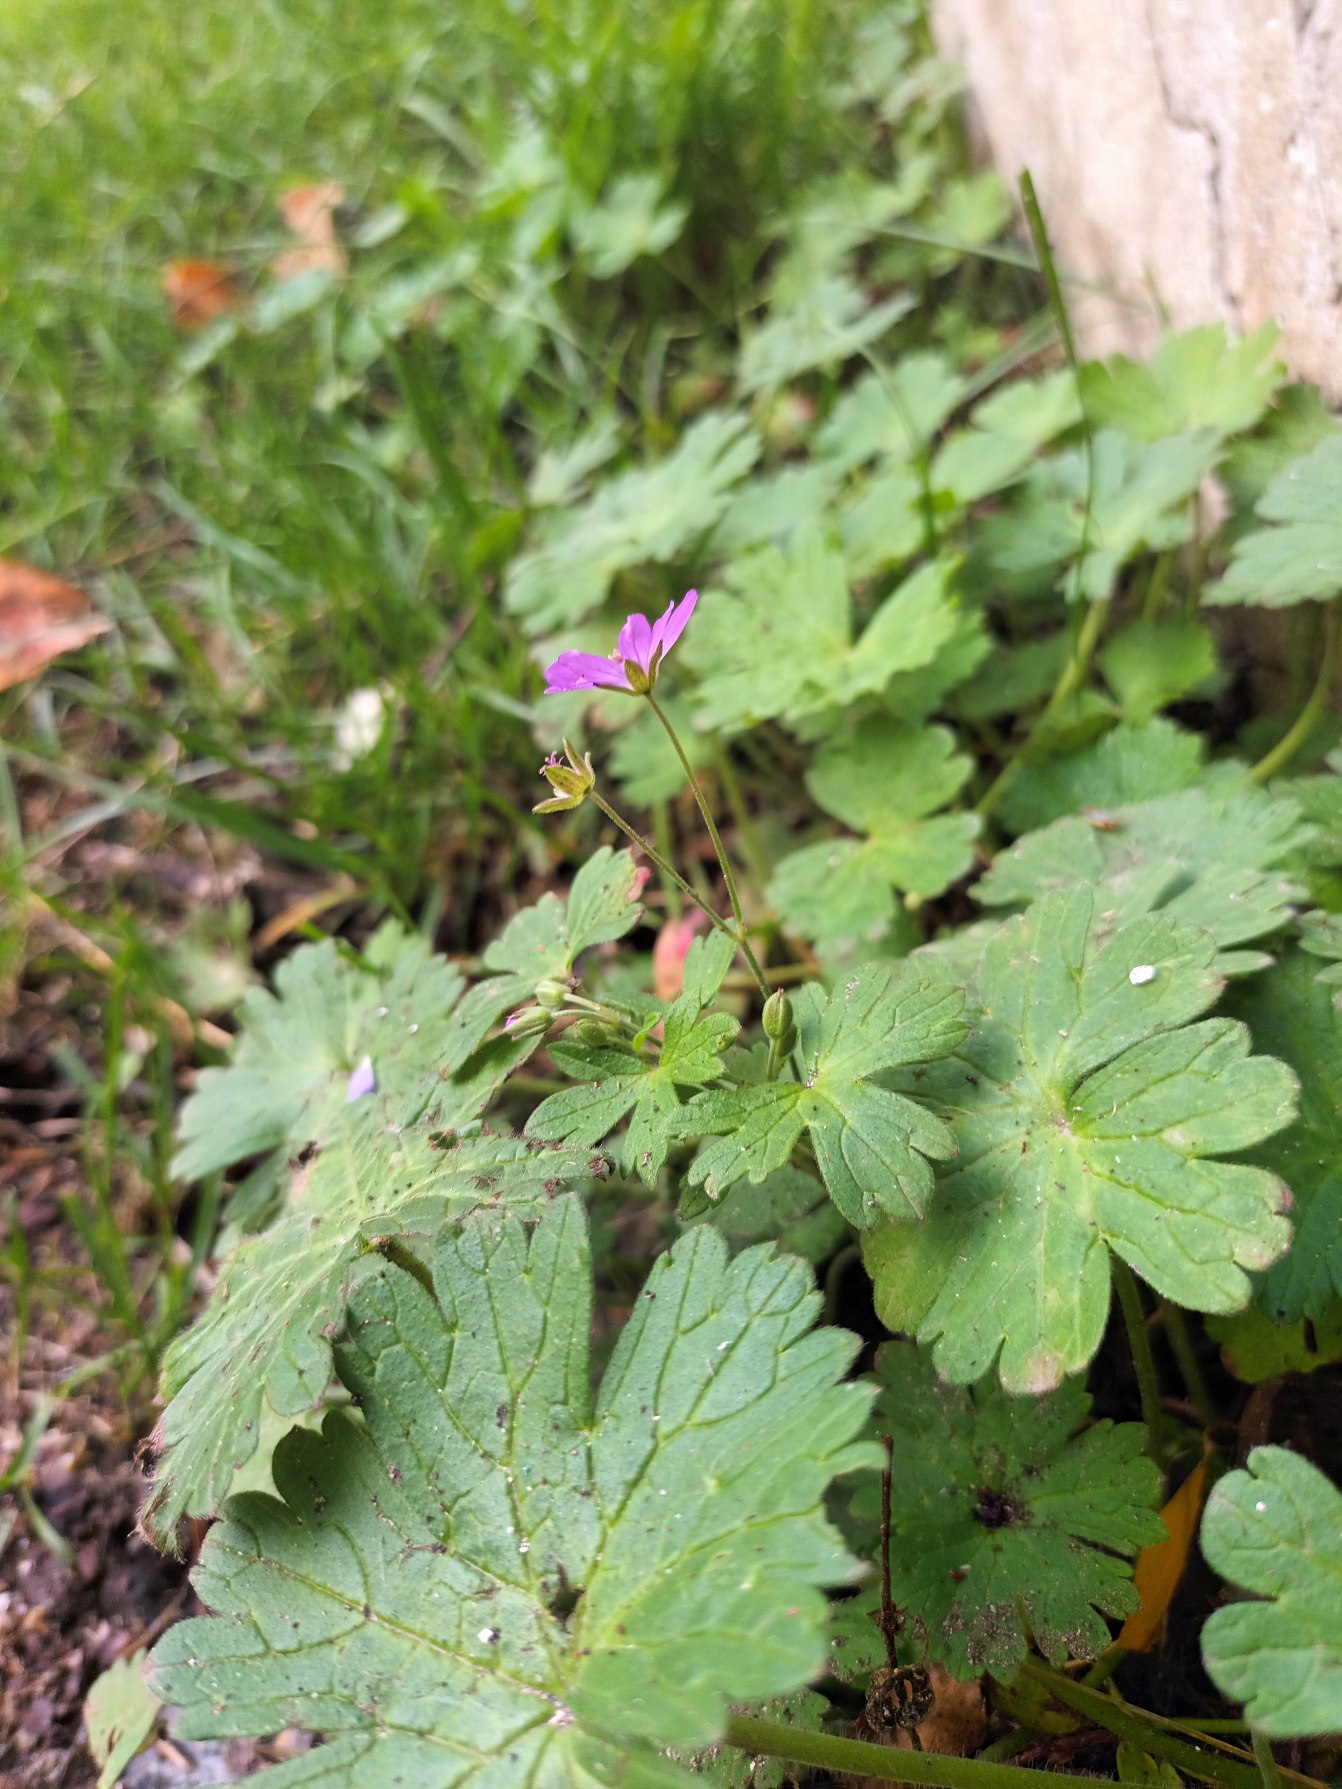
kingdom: Plantae
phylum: Tracheophyta
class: Magnoliopsida
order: Geraniales
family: Geraniaceae
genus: Geranium
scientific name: Geranium pyrenaicum
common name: Pyrenæisk storkenæb
